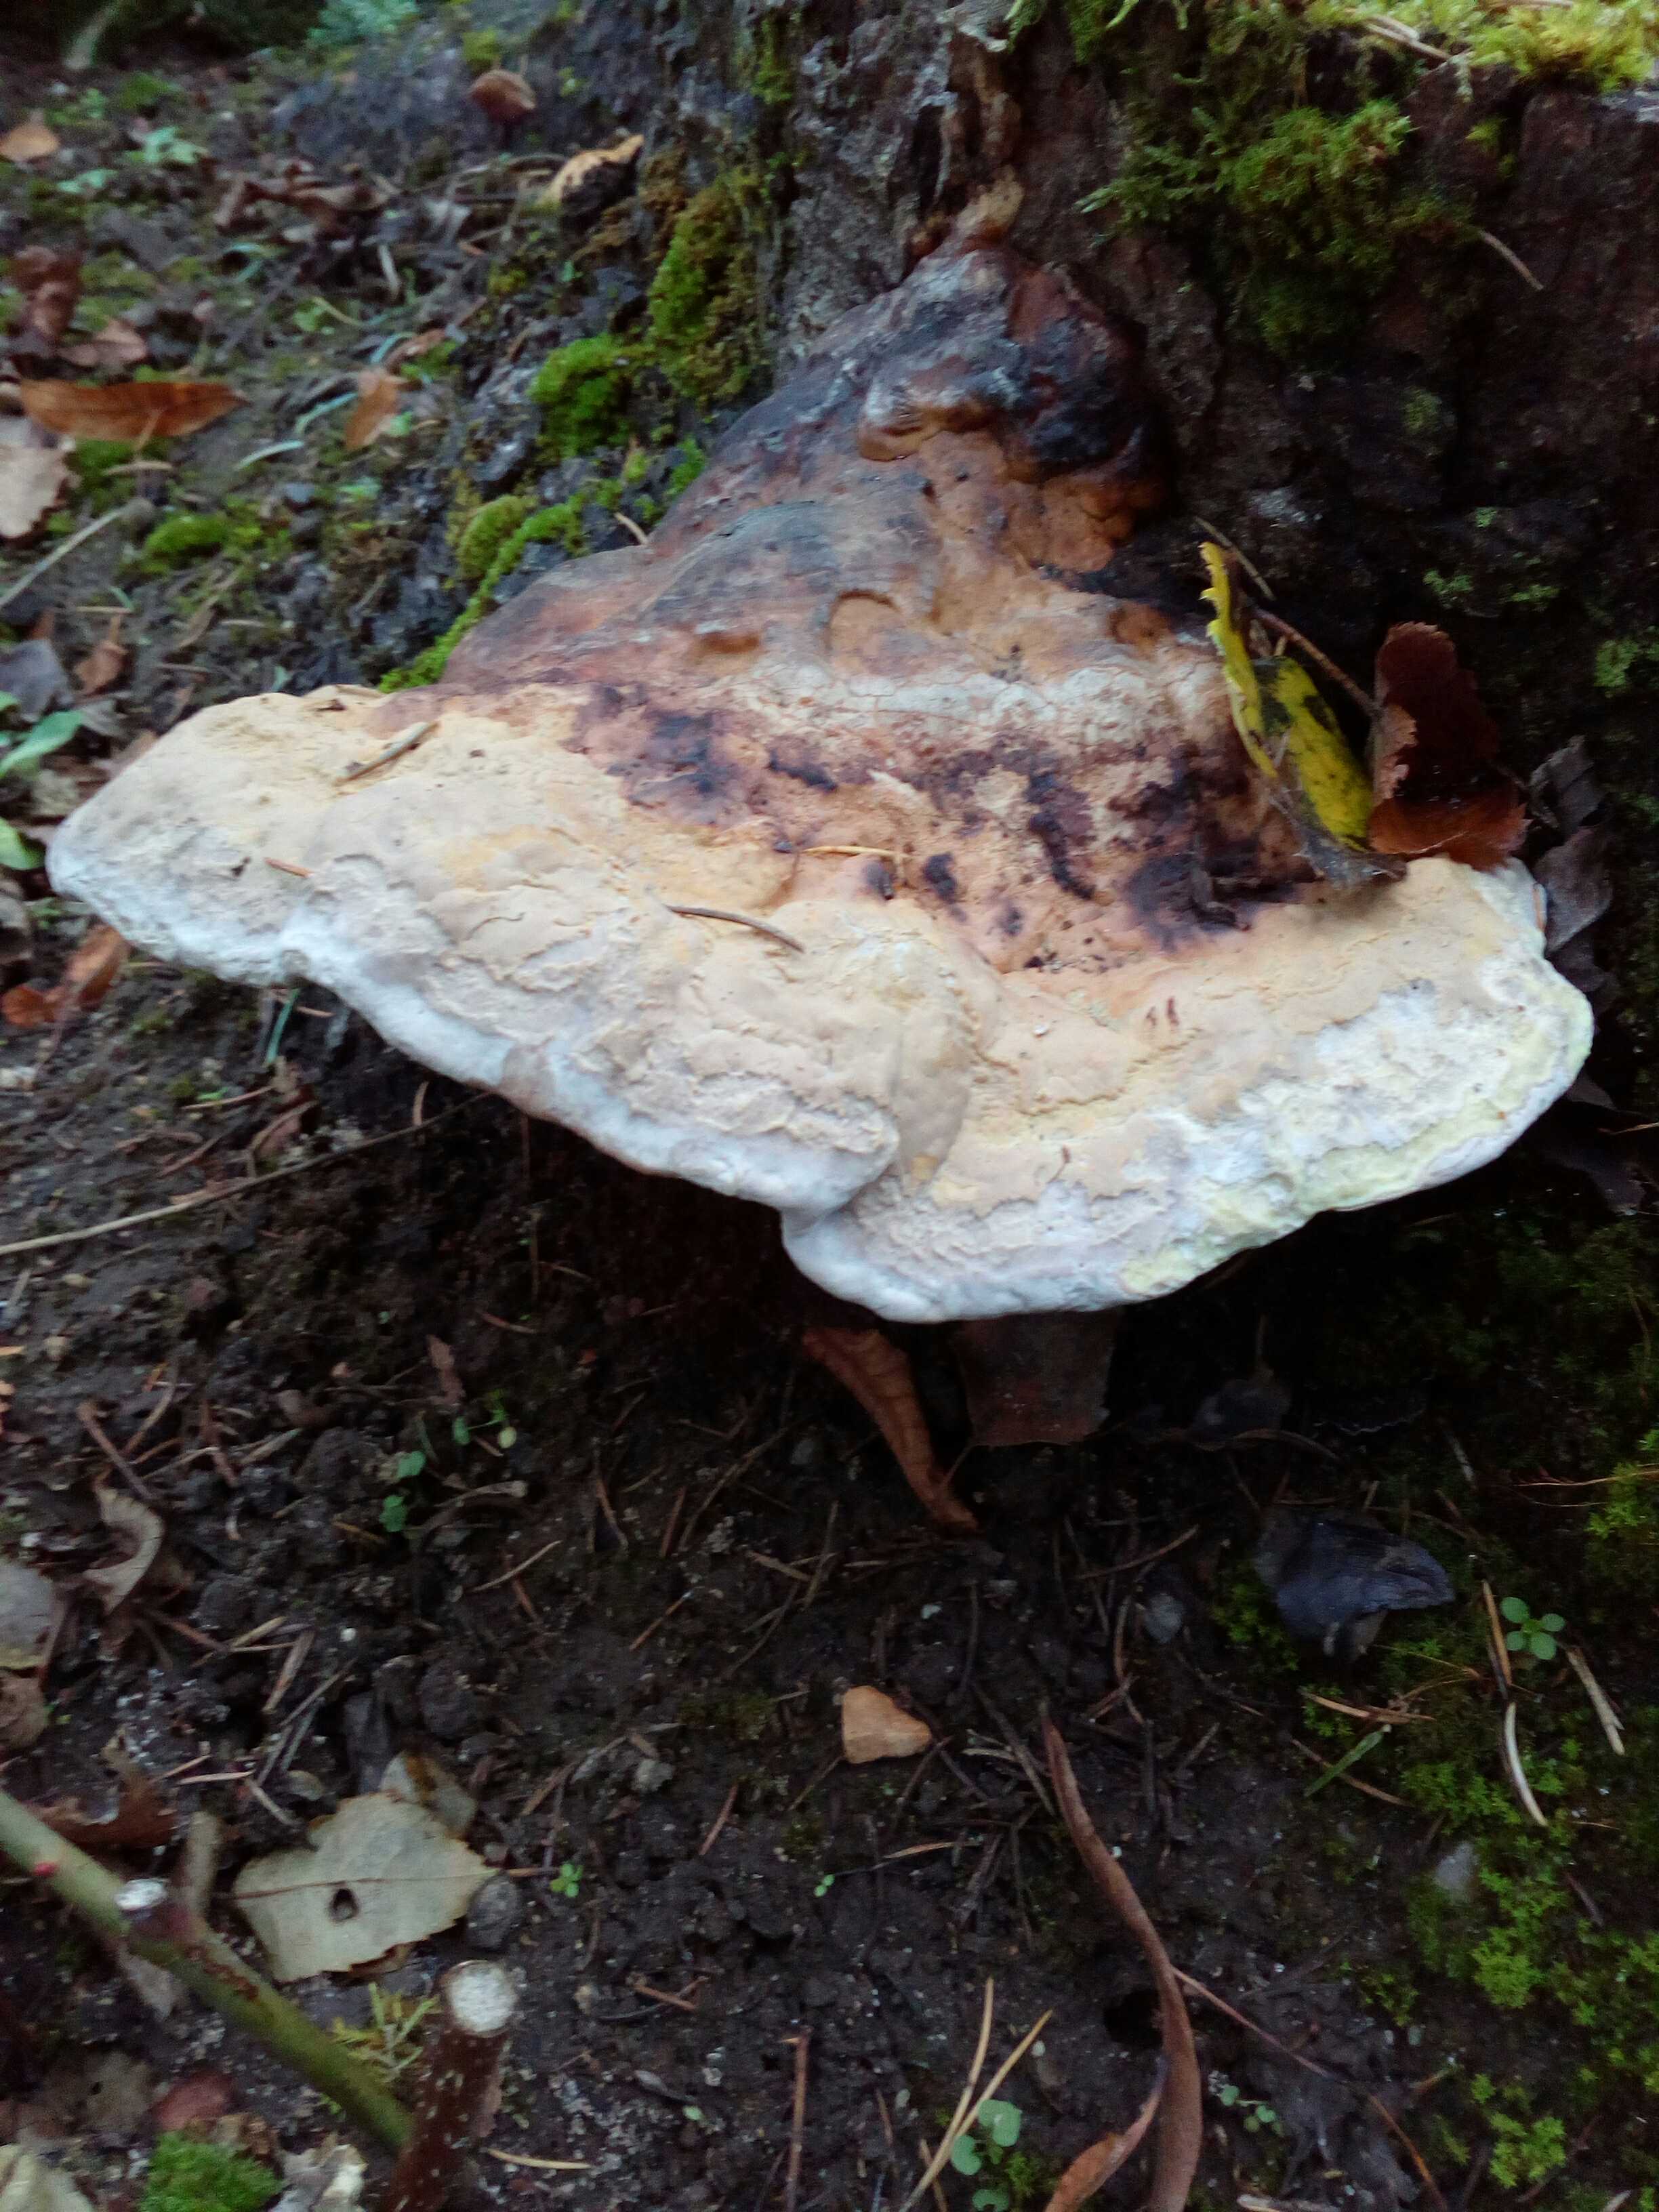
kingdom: Fungi
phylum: Basidiomycota
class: Agaricomycetes
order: Polyporales
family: Fomitopsidaceae
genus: Fomitopsis
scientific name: Fomitopsis pinicola
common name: randbæltet hovporesvamp
